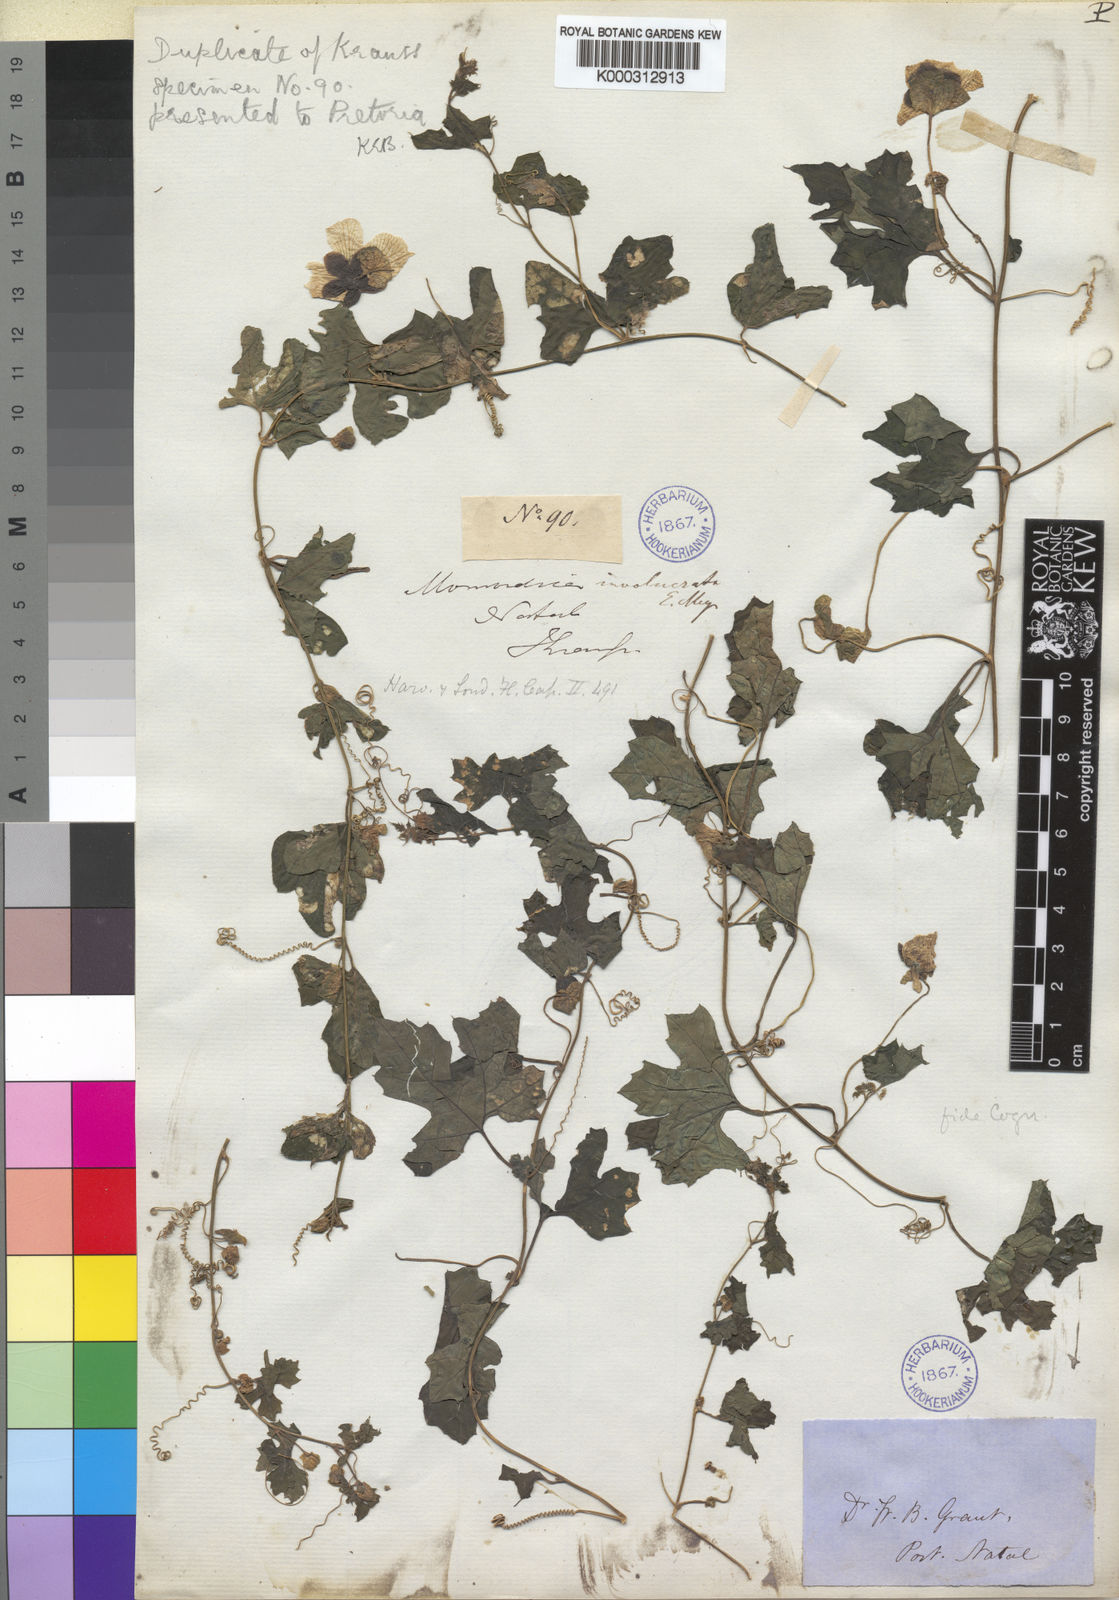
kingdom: Plantae
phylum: Tracheophyta
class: Magnoliopsida
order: Cucurbitales
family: Cucurbitaceae
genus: Momordica
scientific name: Momordica balsamina
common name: Southern balsampear
